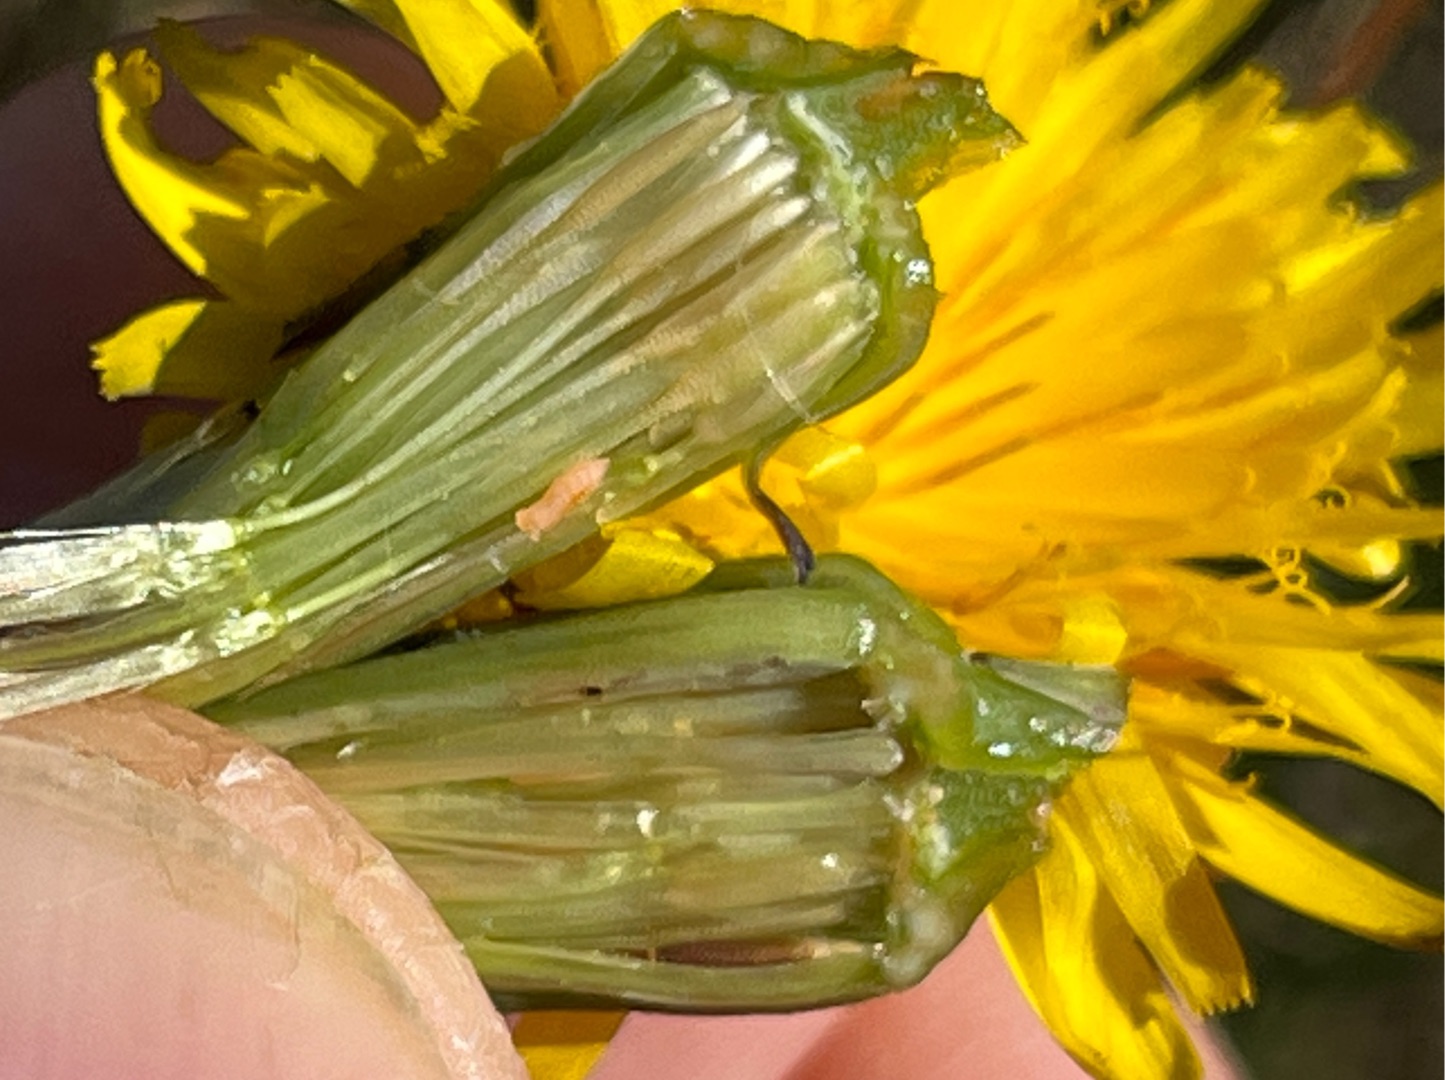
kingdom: Animalia
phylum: Arthropoda
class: Insecta
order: Diptera
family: Cecidomyiidae
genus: Jaapiella
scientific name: Jaapiella hypochoeridis
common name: Orange kongepengalmyg
